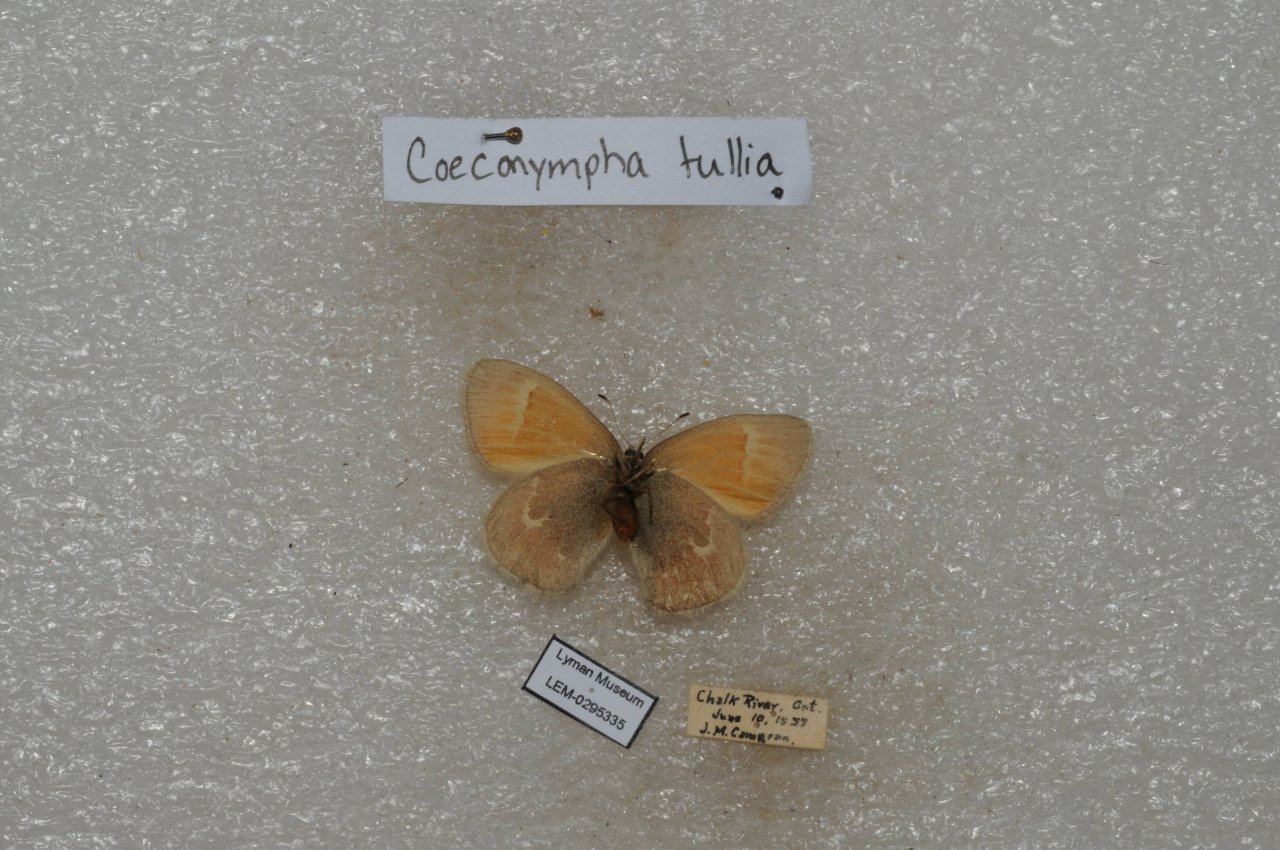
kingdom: Animalia
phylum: Arthropoda
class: Insecta
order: Lepidoptera
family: Nymphalidae
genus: Coenonympha
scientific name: Coenonympha tullia
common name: Large Heath
